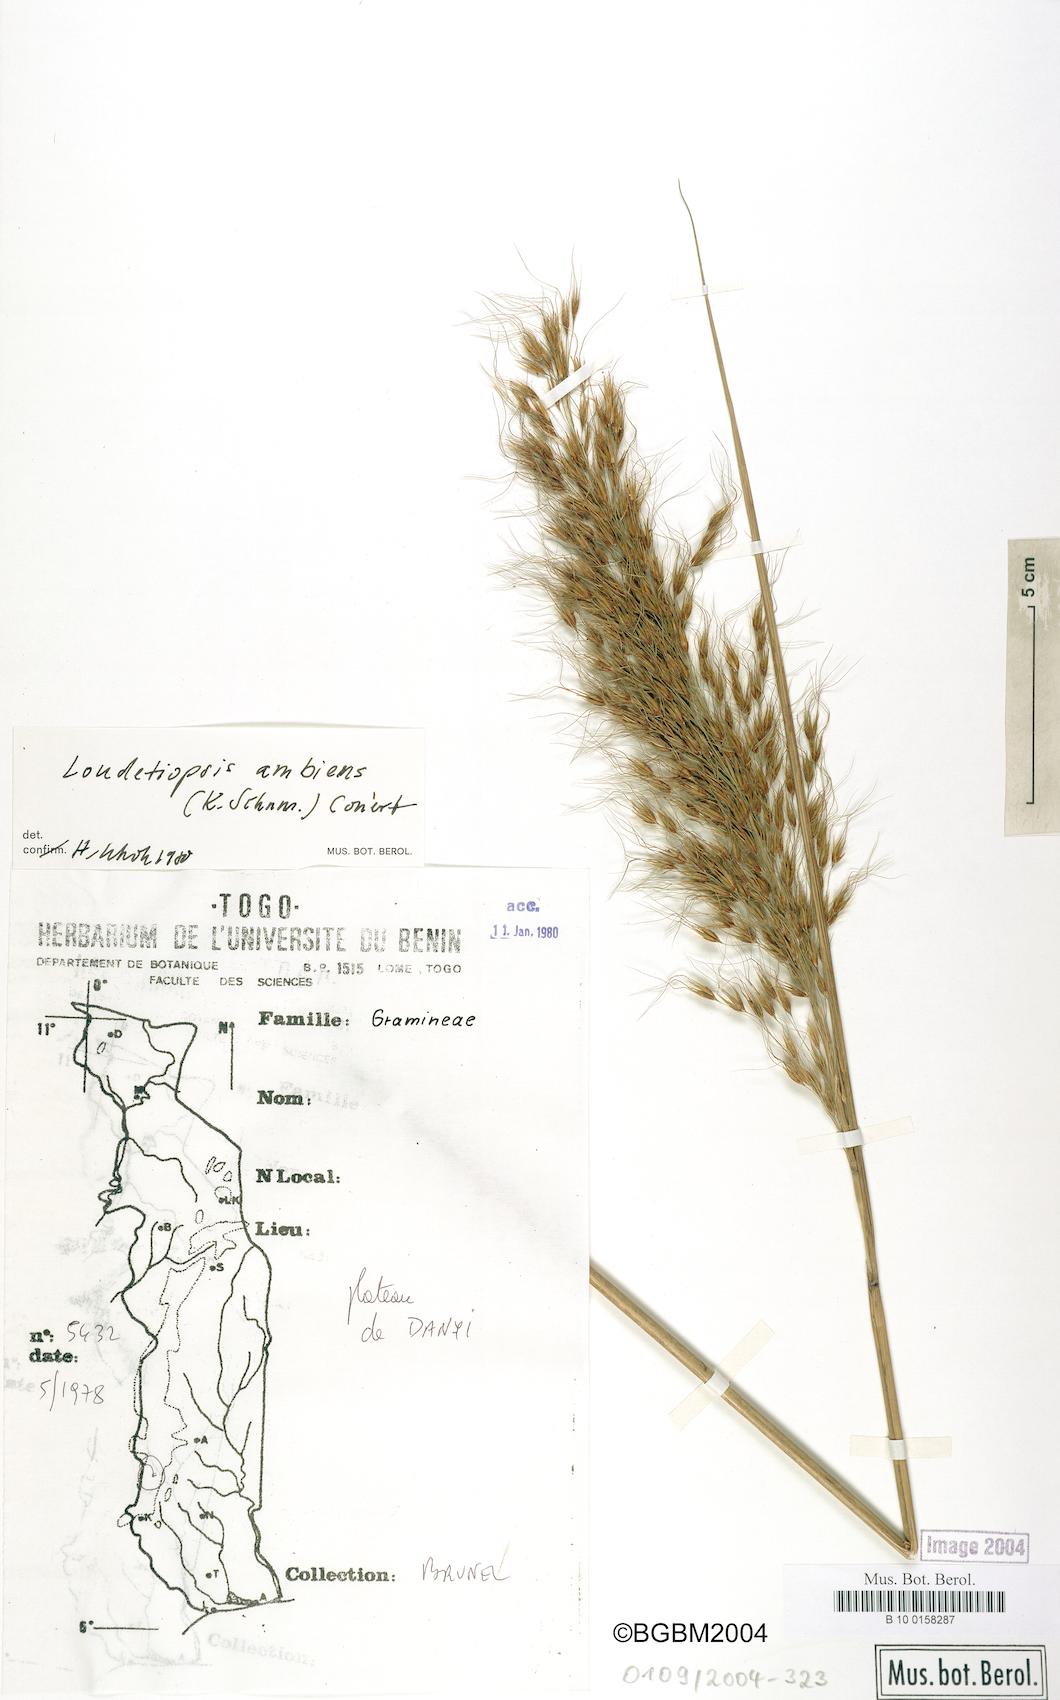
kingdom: Plantae
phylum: Tracheophyta
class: Liliopsida
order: Poales
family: Poaceae
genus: Loudetiopsis
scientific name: Loudetiopsis ambiens
